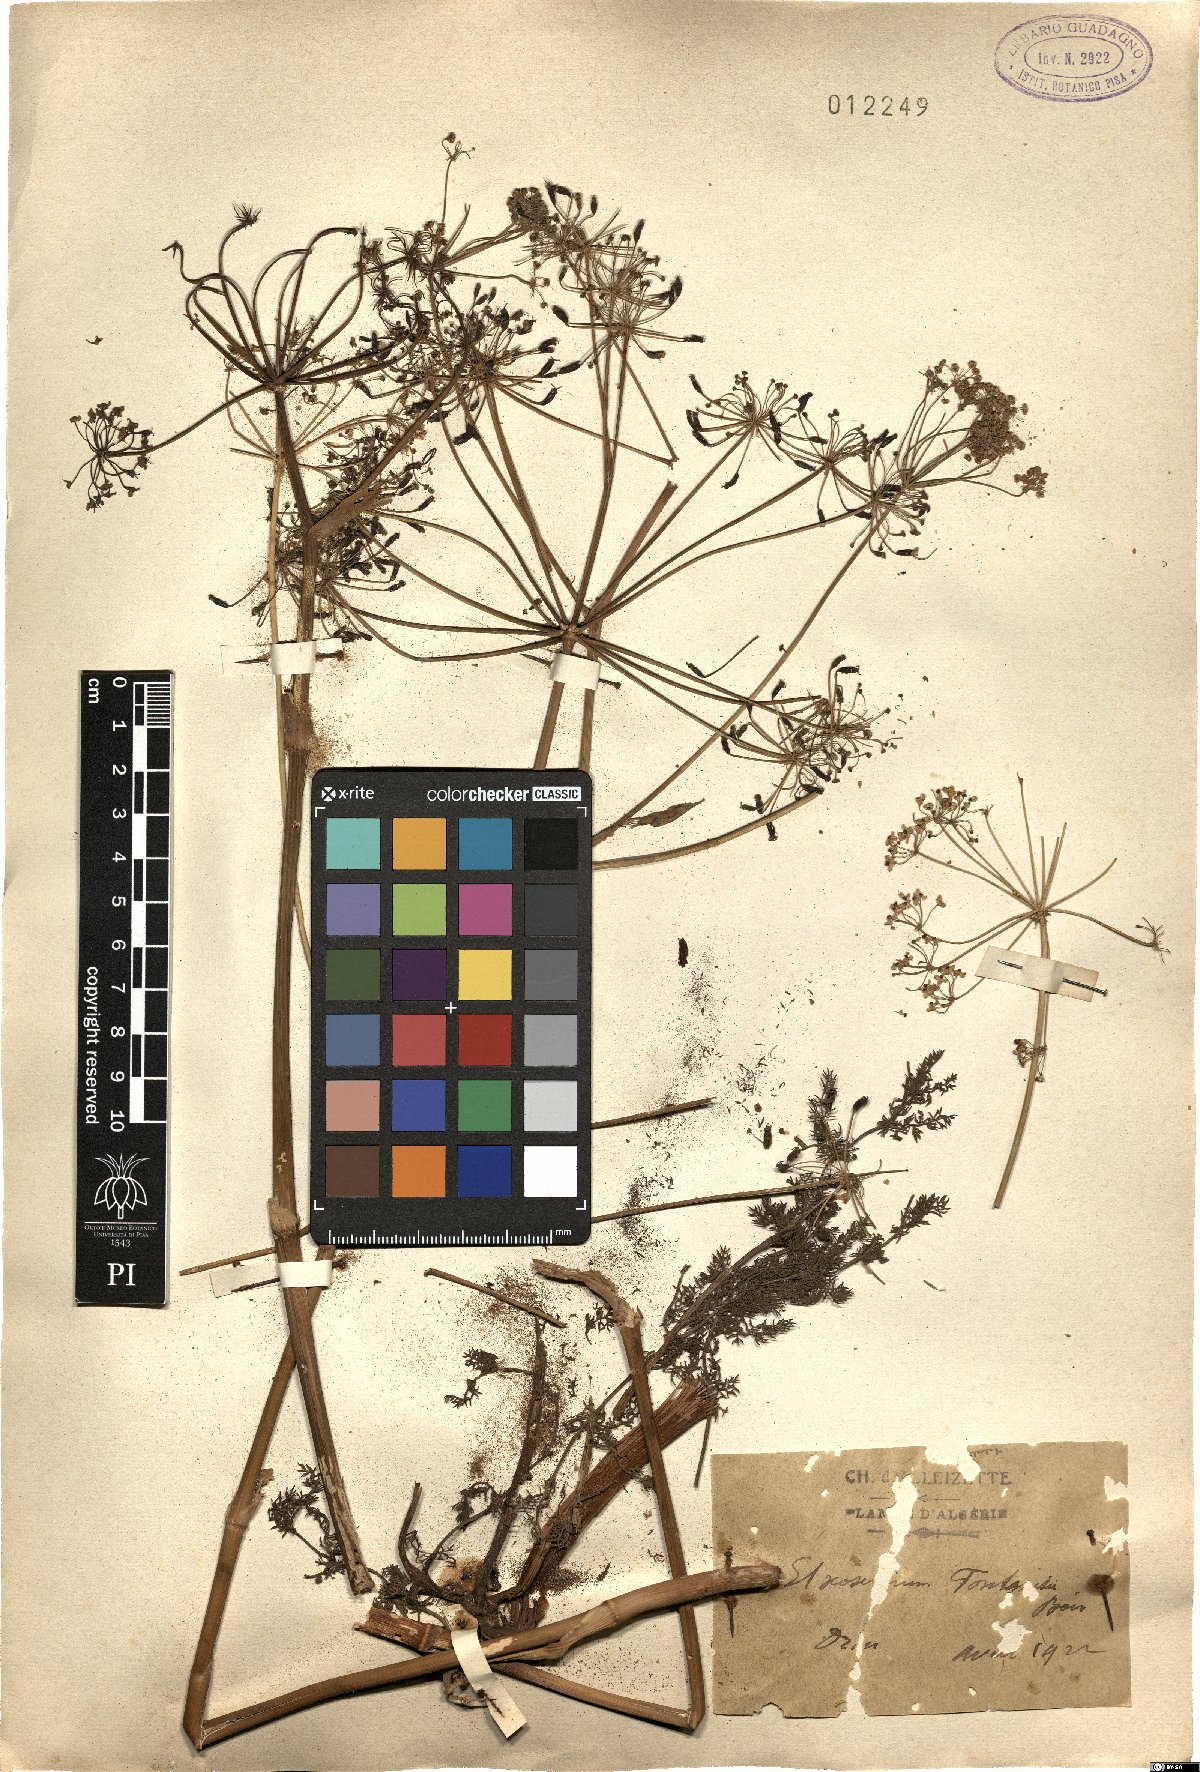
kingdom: Plantae
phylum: Tracheophyta
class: Magnoliopsida
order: Apiales
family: Apiaceae
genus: Thapsia
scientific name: Thapsia thapsioides
